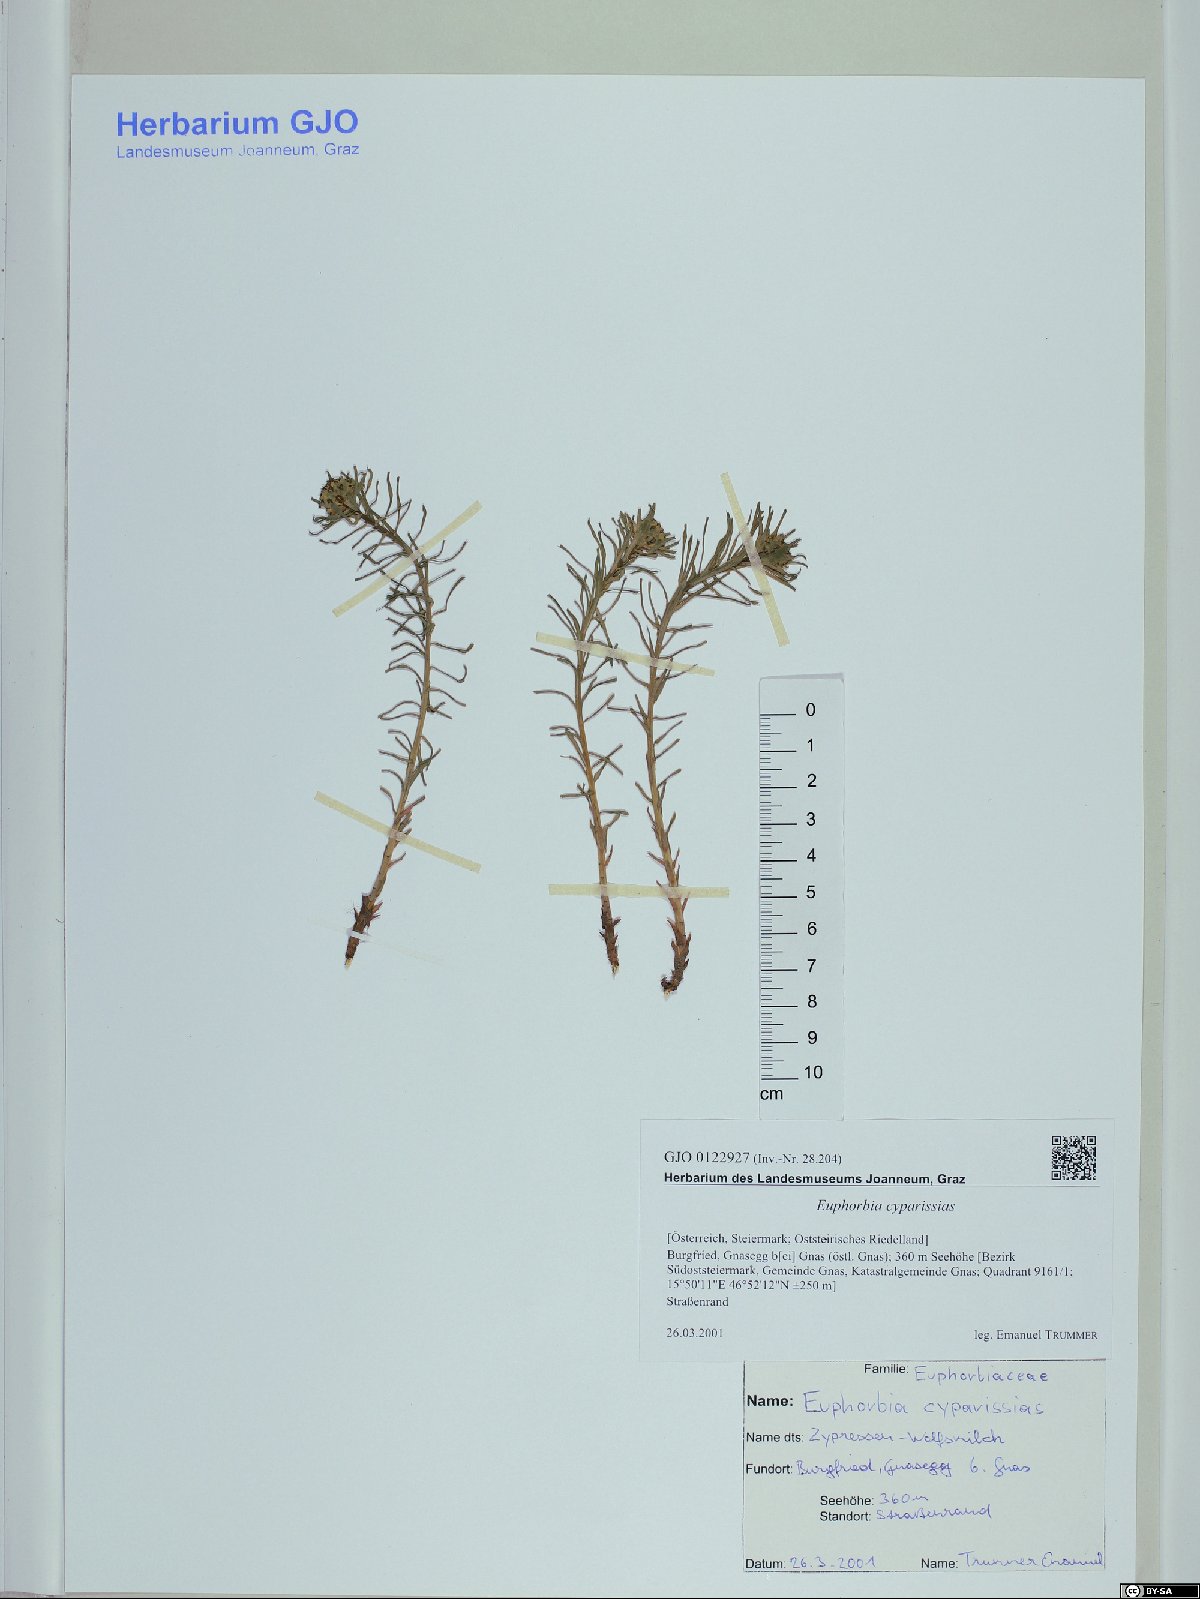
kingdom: Plantae
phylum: Tracheophyta
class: Magnoliopsida
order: Malpighiales
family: Euphorbiaceae
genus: Euphorbia
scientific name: Euphorbia cyparissias
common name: Cypress spurge
